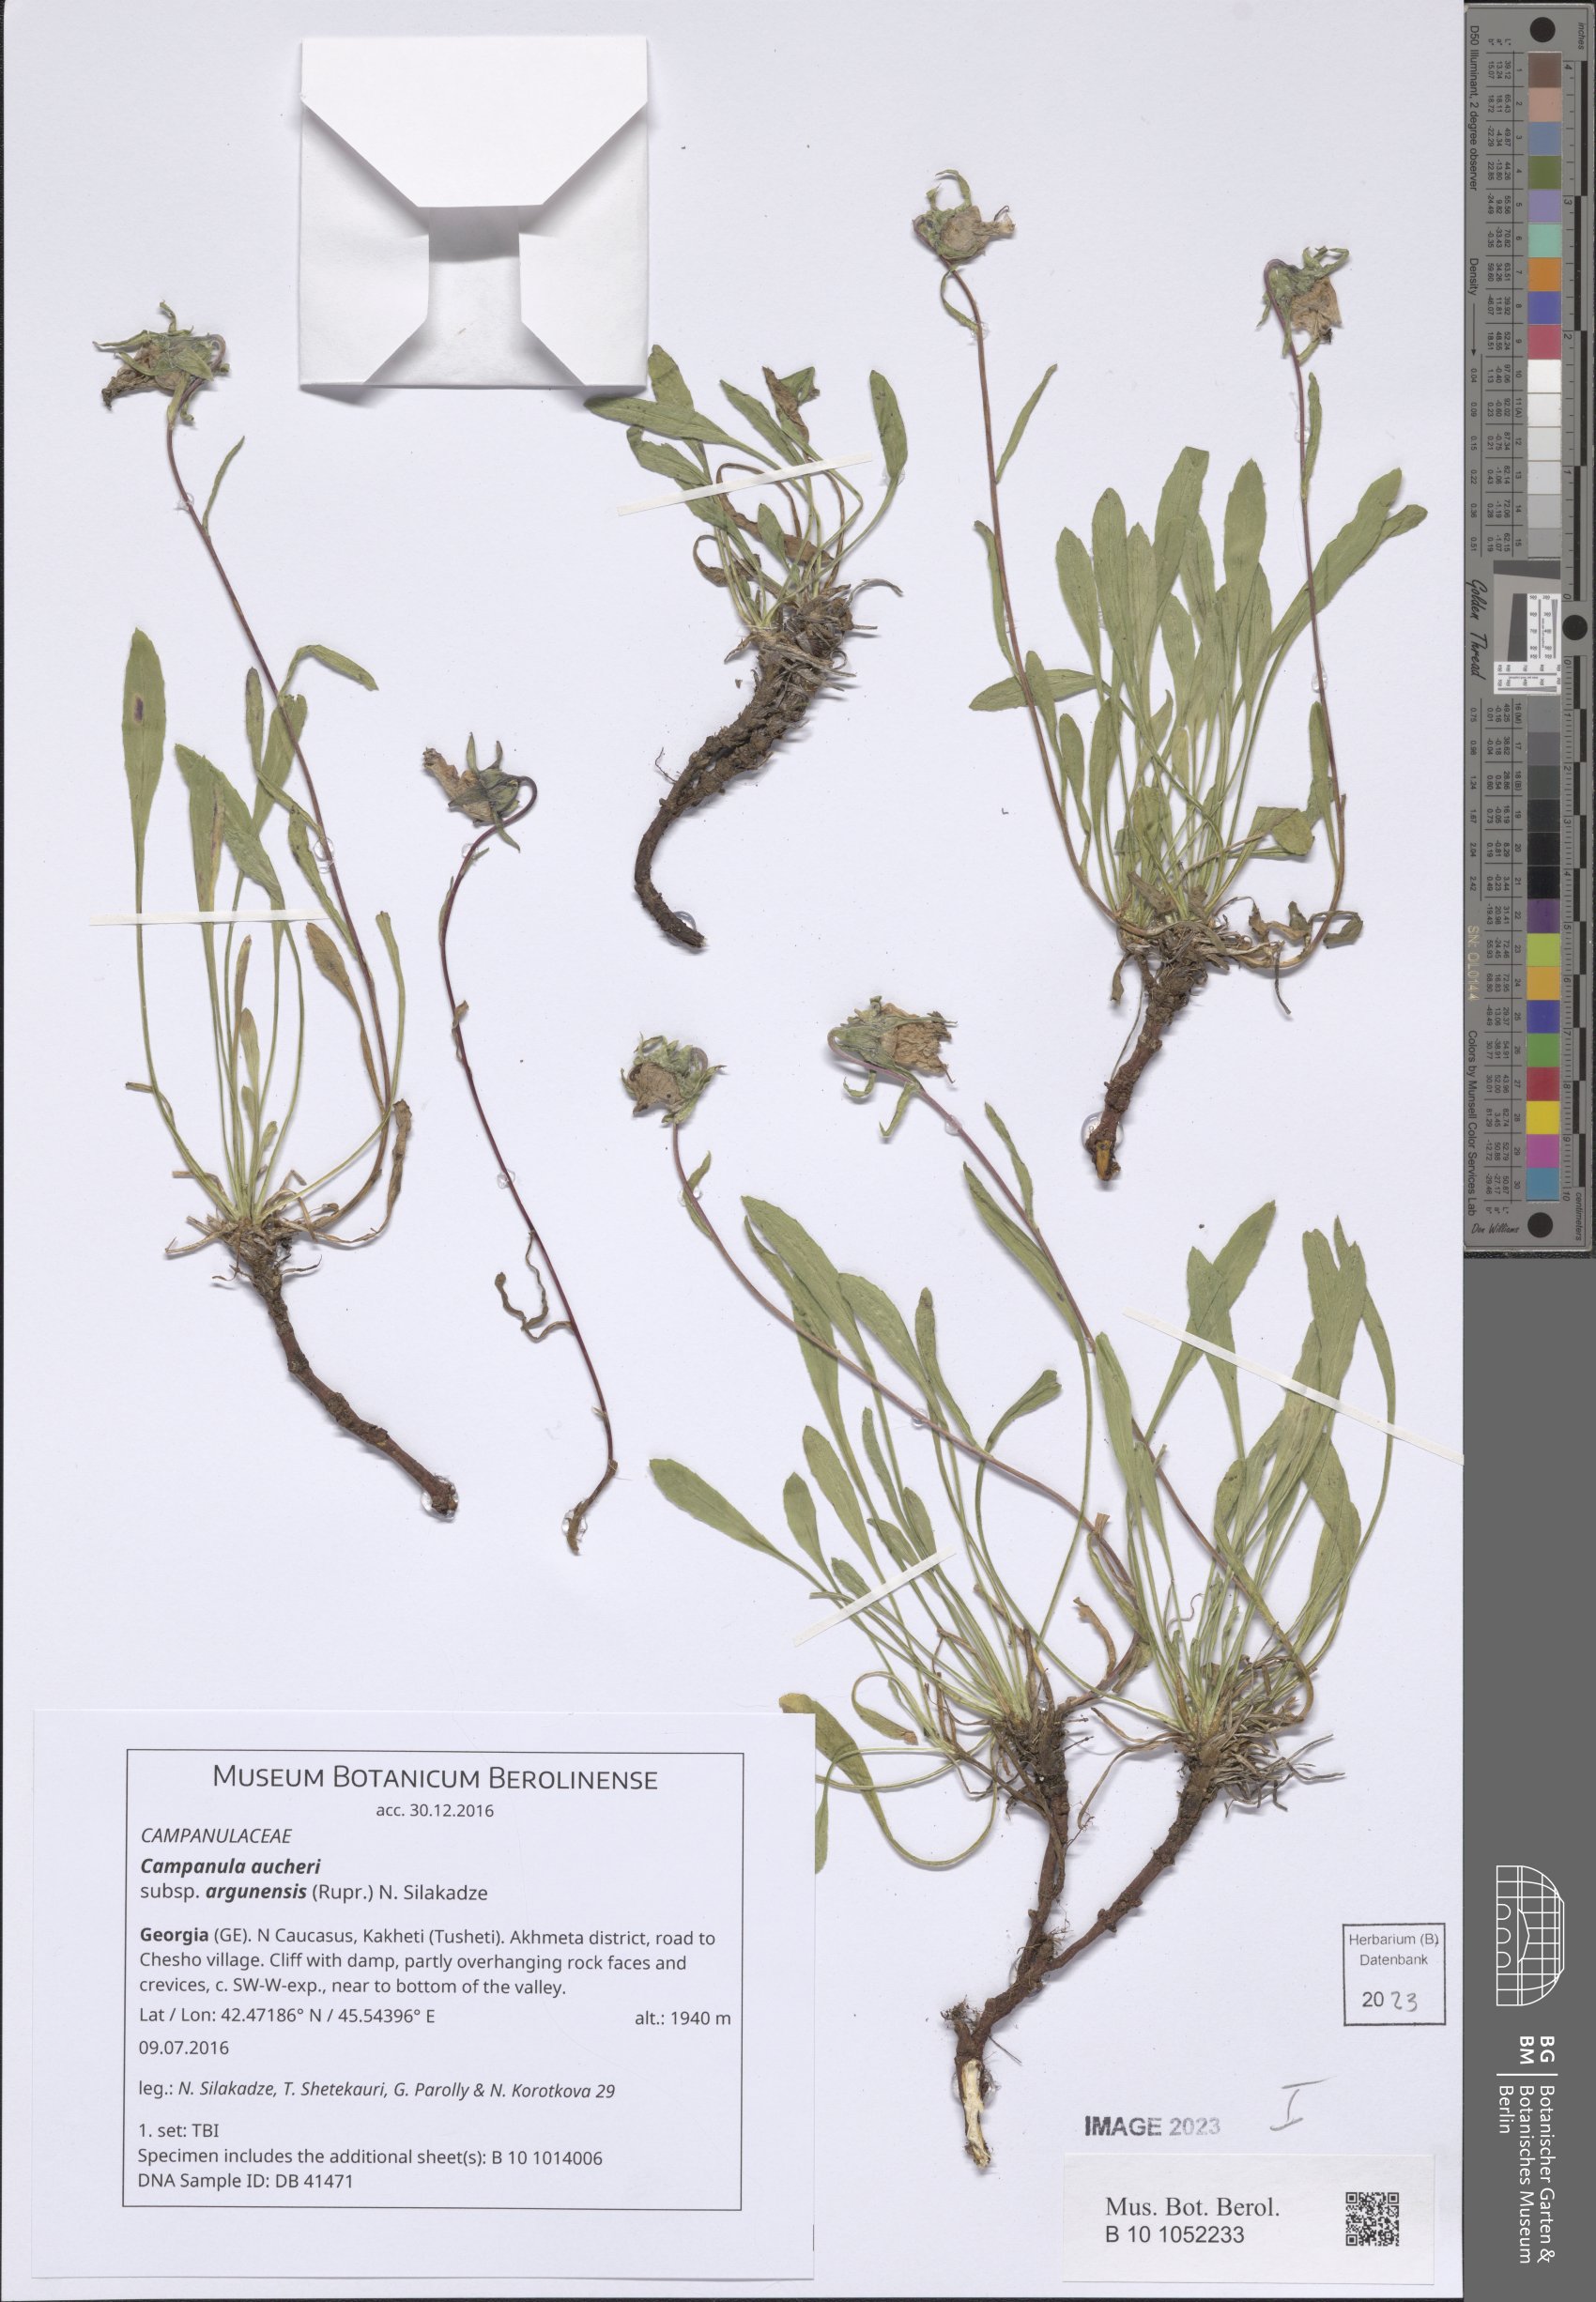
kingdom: Plantae
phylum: Tracheophyta
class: Magnoliopsida
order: Asterales
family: Campanulaceae
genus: Campanula
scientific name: Campanula saxifraga
